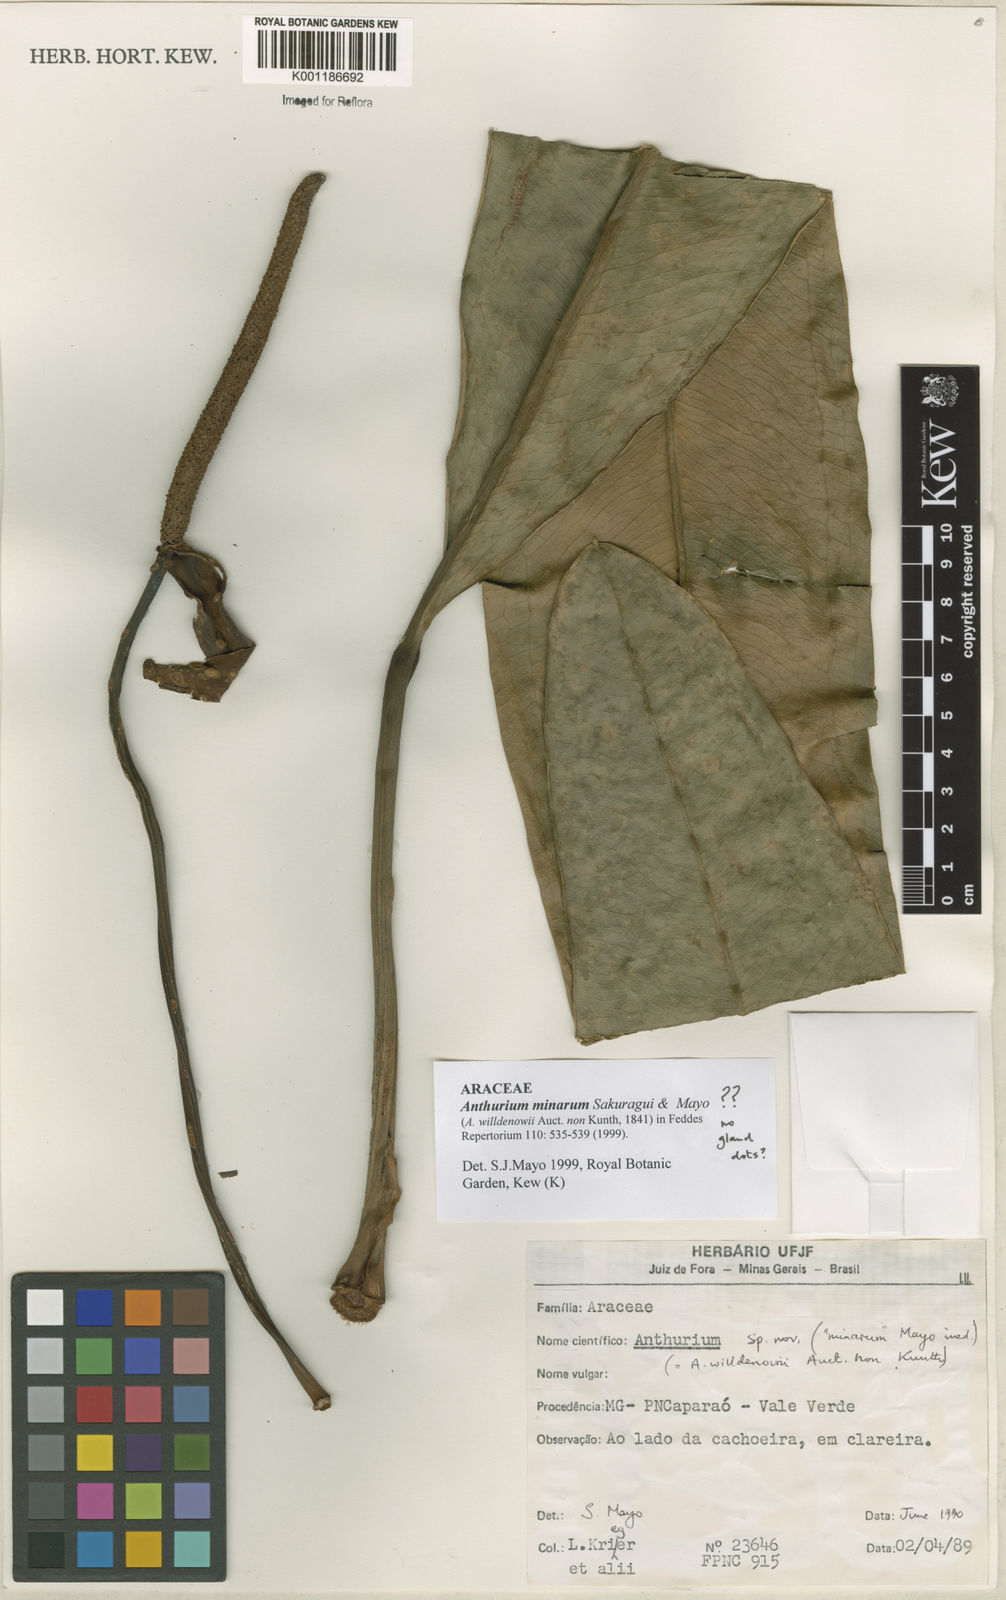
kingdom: Plantae
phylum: Tracheophyta
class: Liliopsida
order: Alismatales
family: Araceae
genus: Anthurium
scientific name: Anthurium minarum
